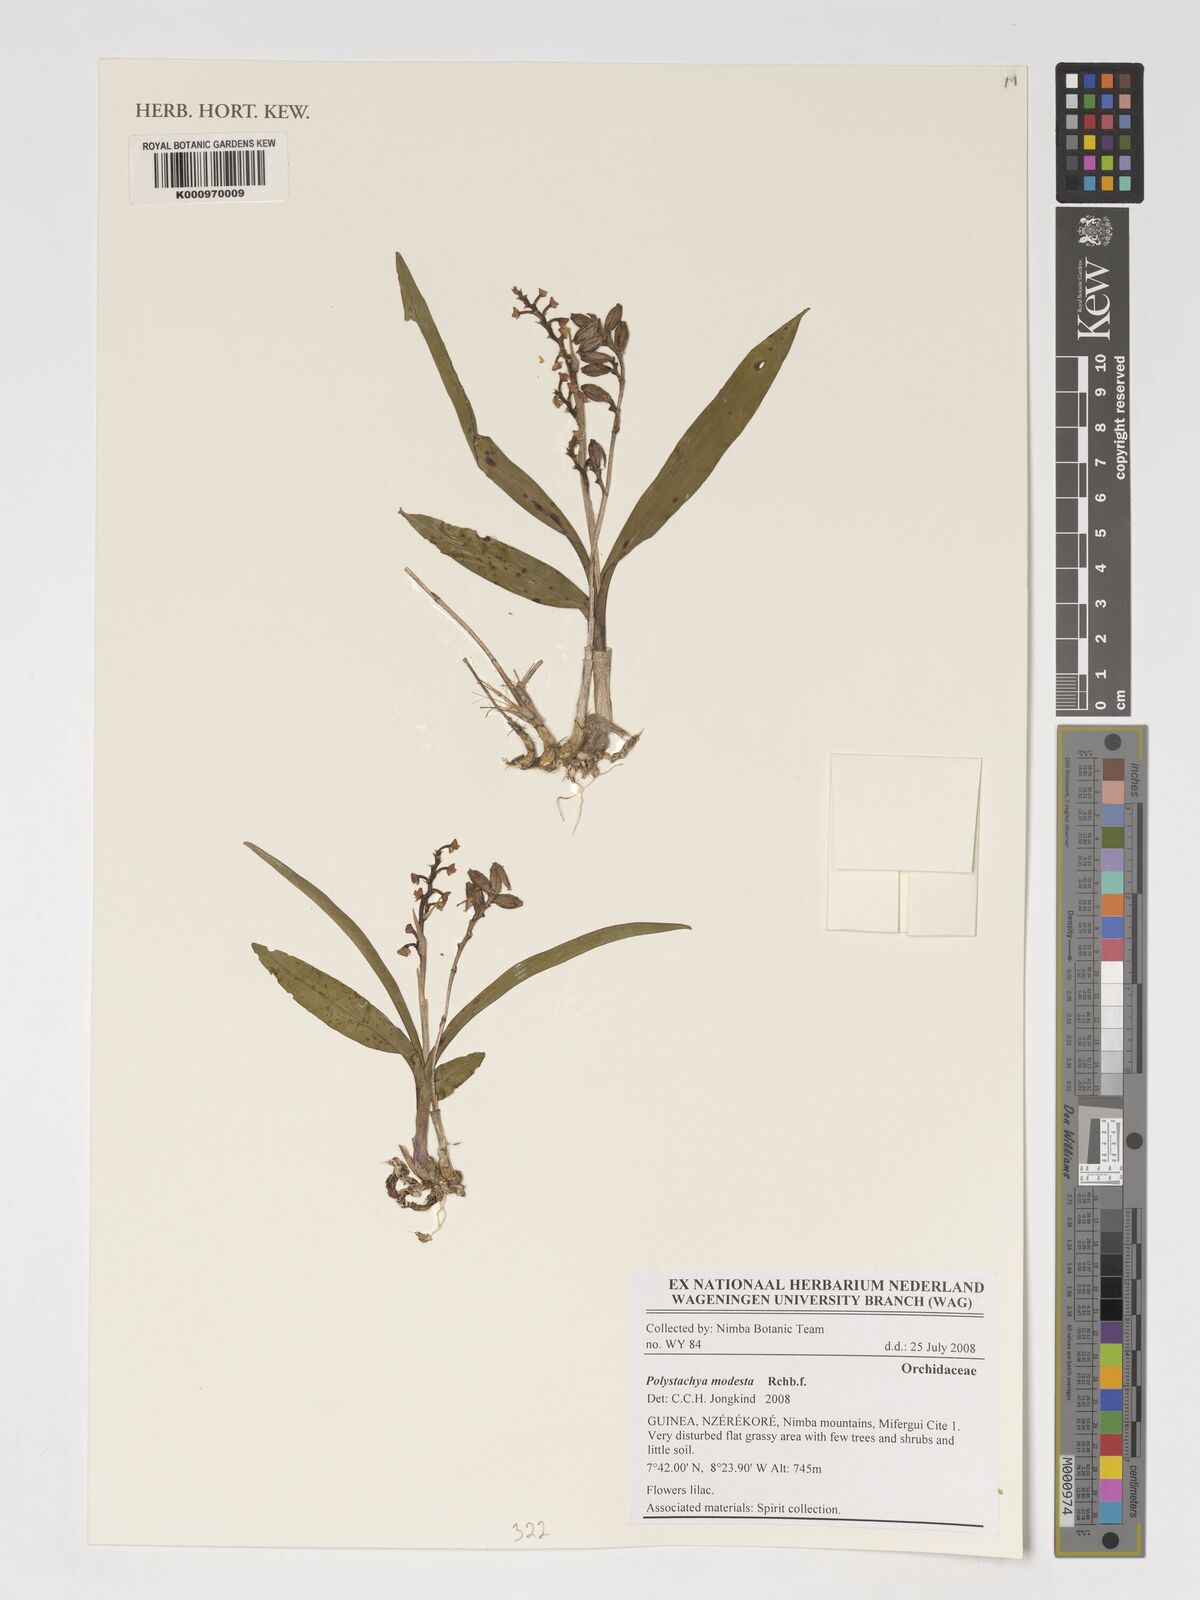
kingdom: Plantae
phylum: Tracheophyta
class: Liliopsida
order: Asparagales
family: Orchidaceae
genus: Polystachya
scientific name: Polystachya modesta
